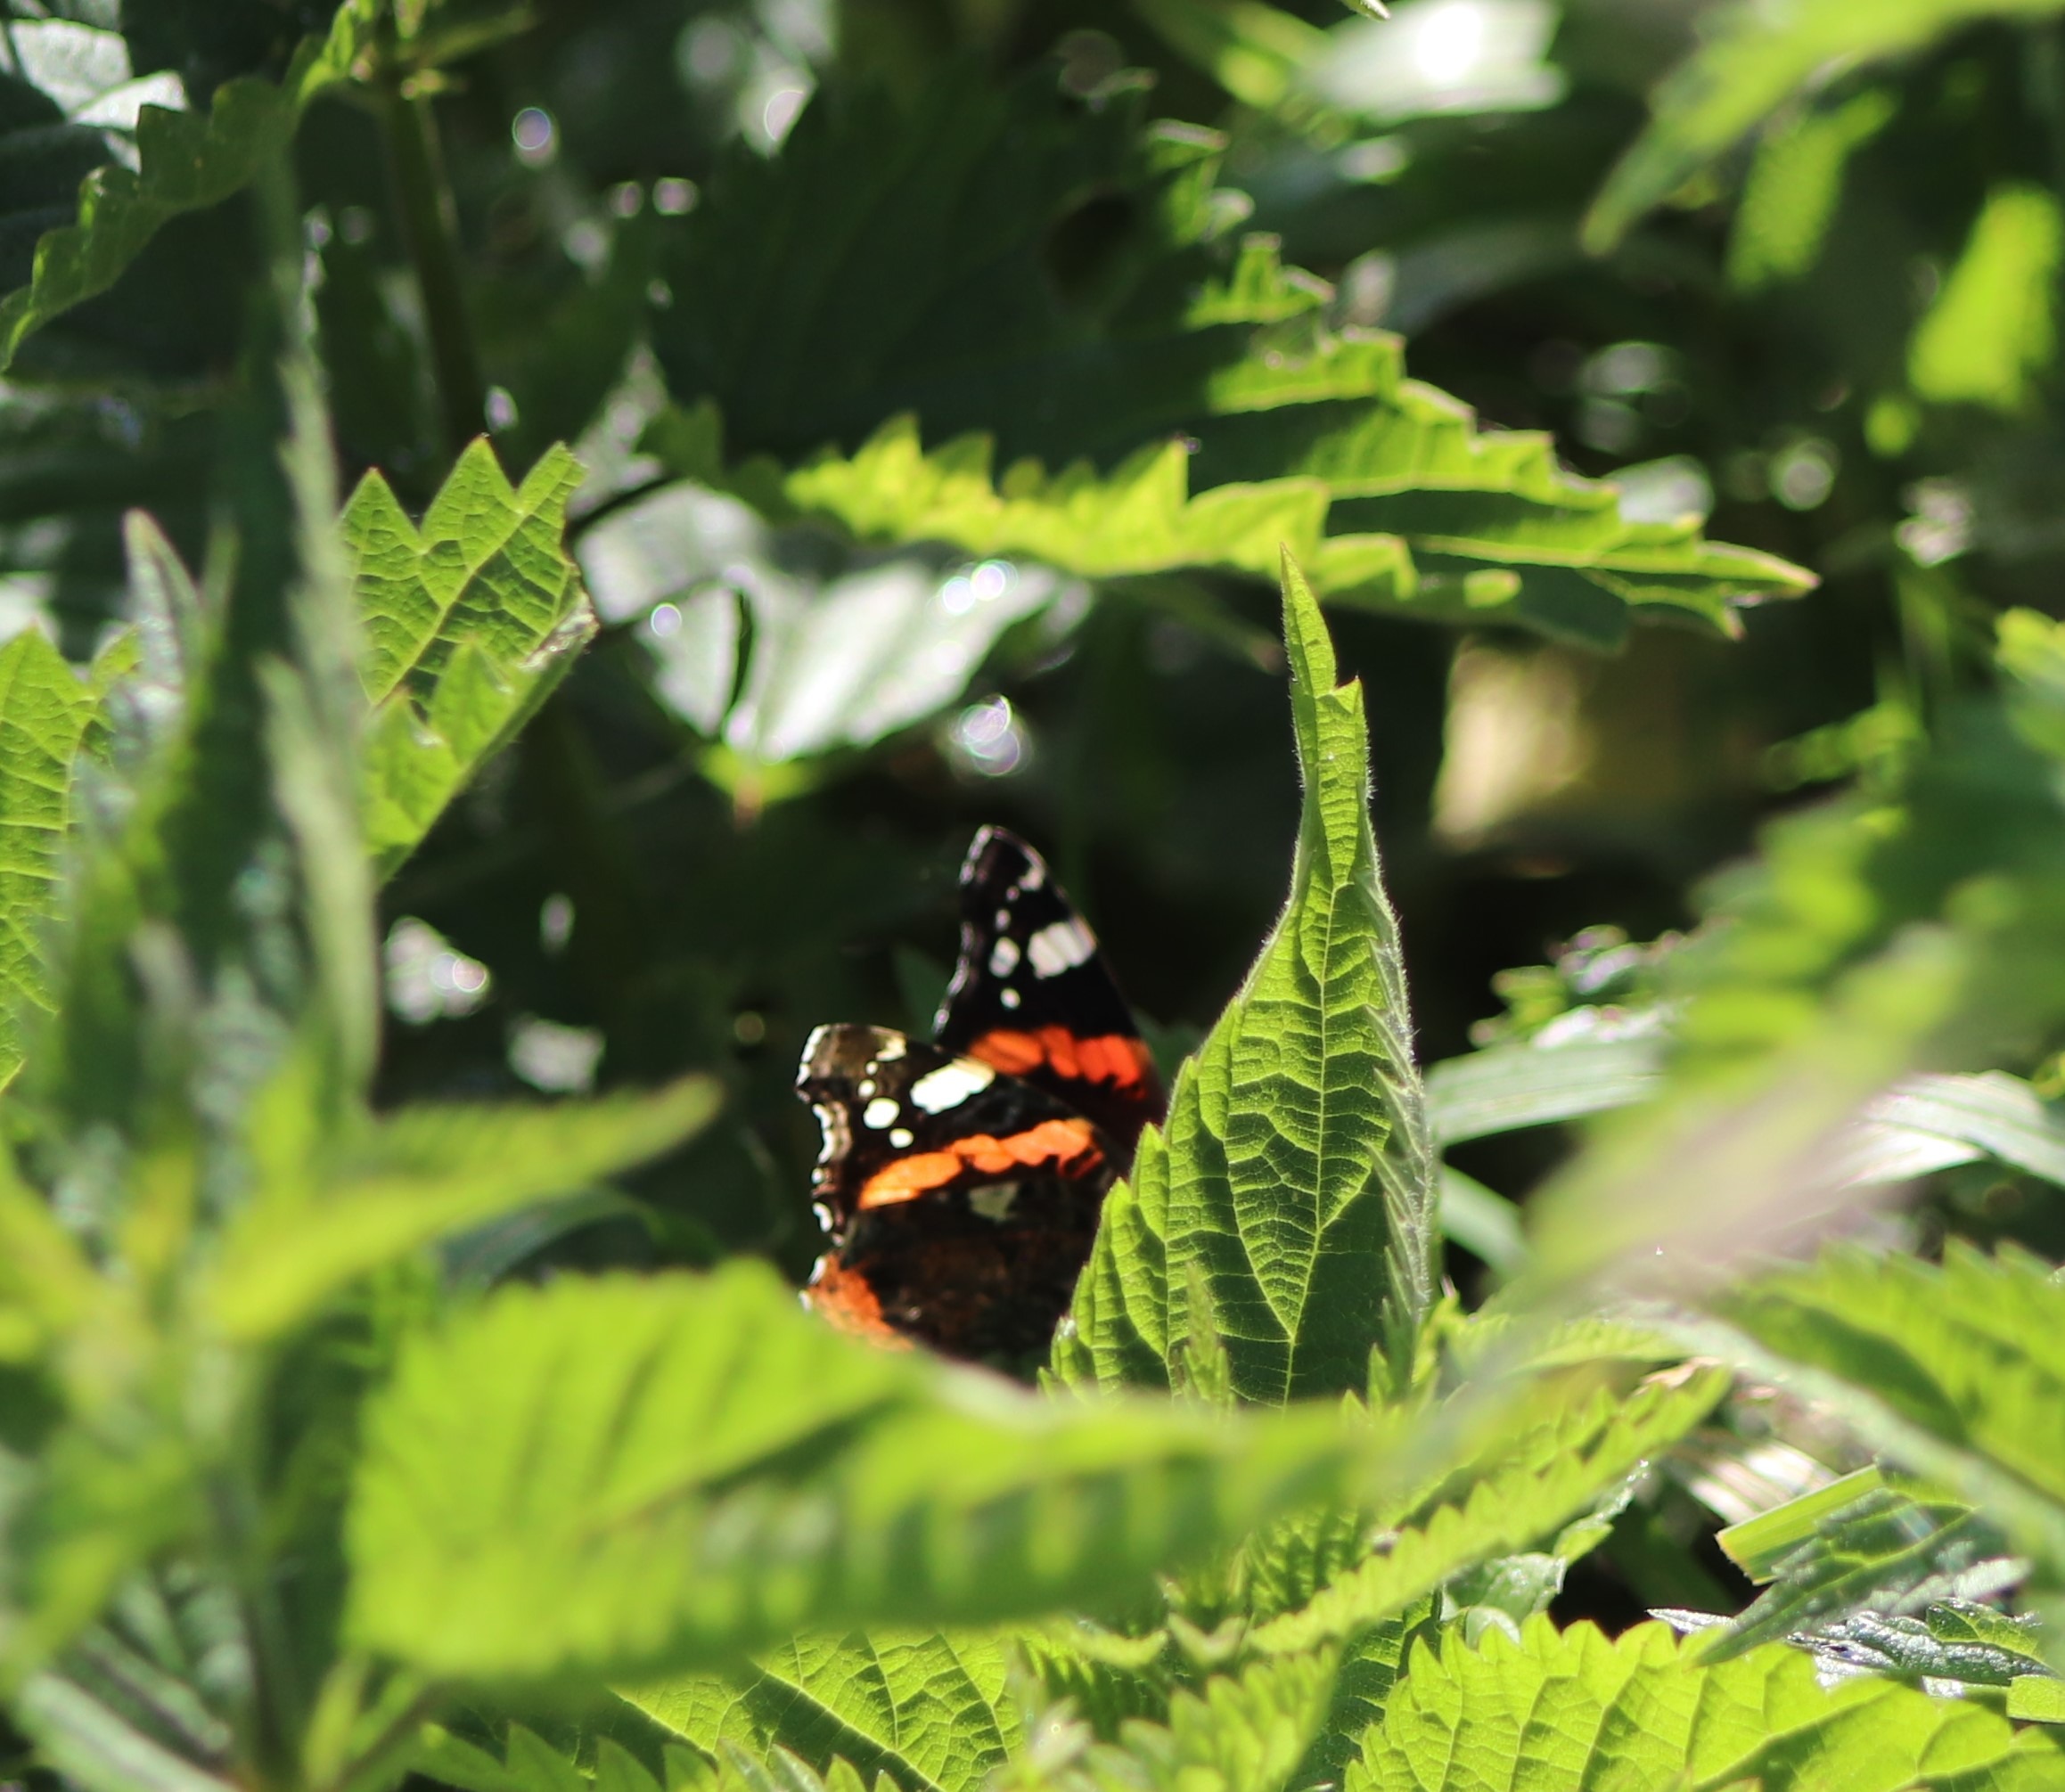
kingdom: Animalia
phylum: Arthropoda
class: Insecta
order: Lepidoptera
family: Nymphalidae
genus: Vanessa
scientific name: Vanessa atalanta
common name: Admiral
